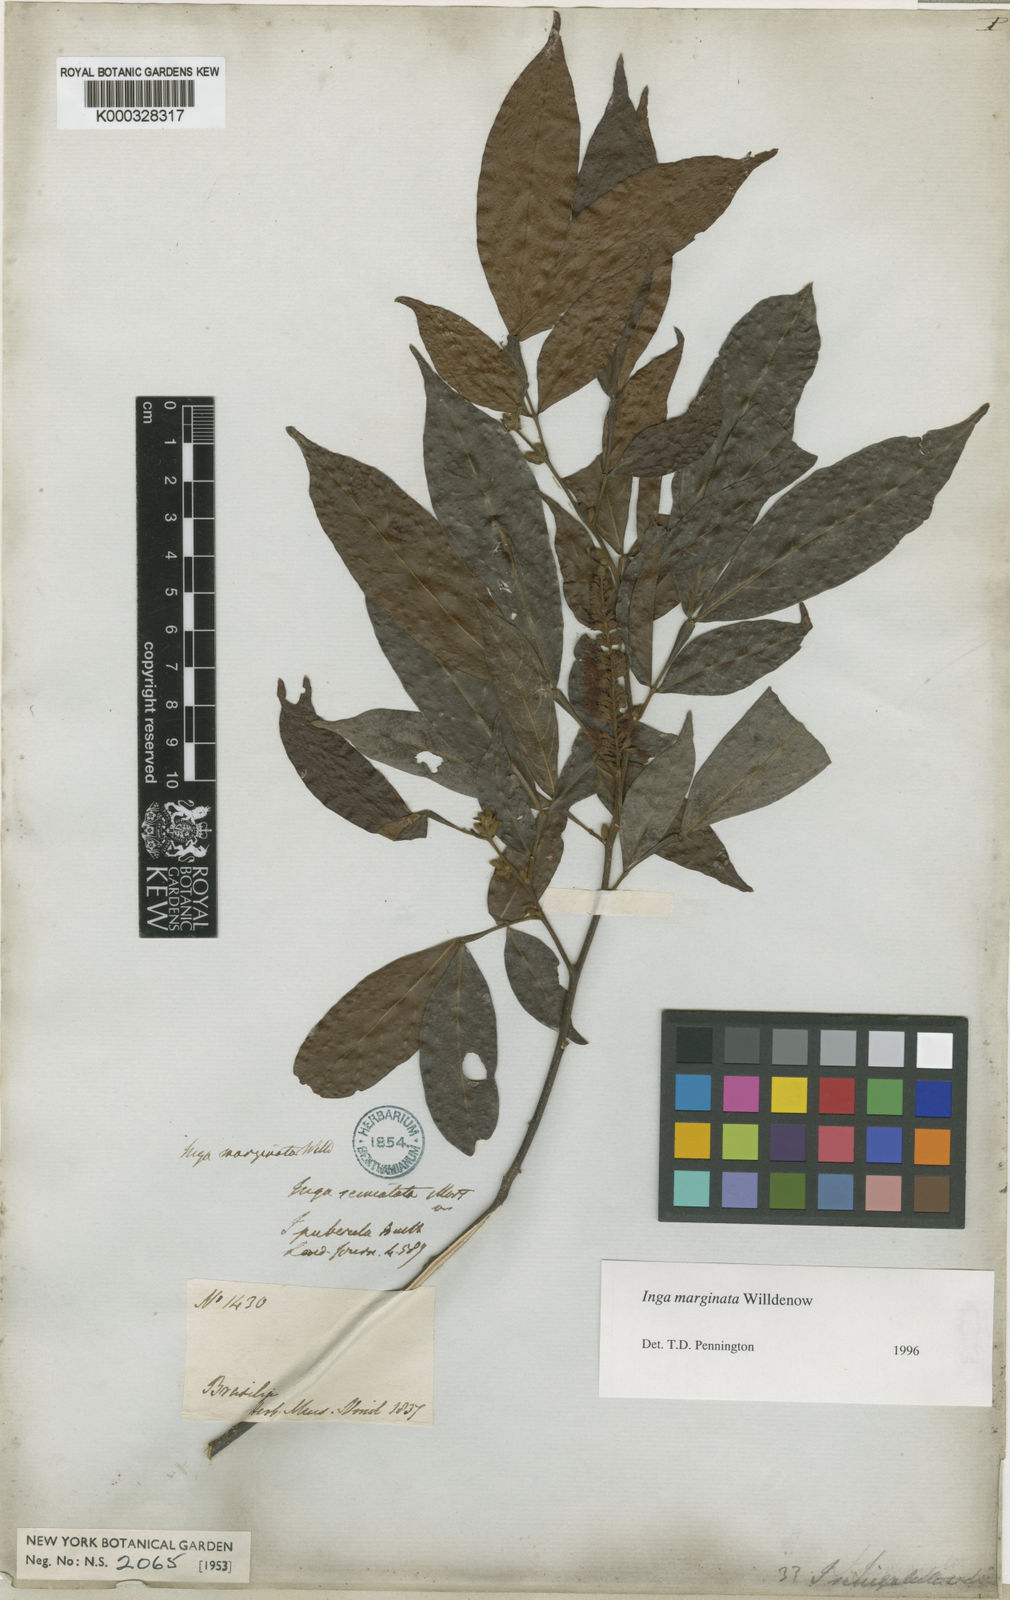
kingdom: Plantae
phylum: Tracheophyta
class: Magnoliopsida
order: Fabales
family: Fabaceae
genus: Inga
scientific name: Inga marginata
